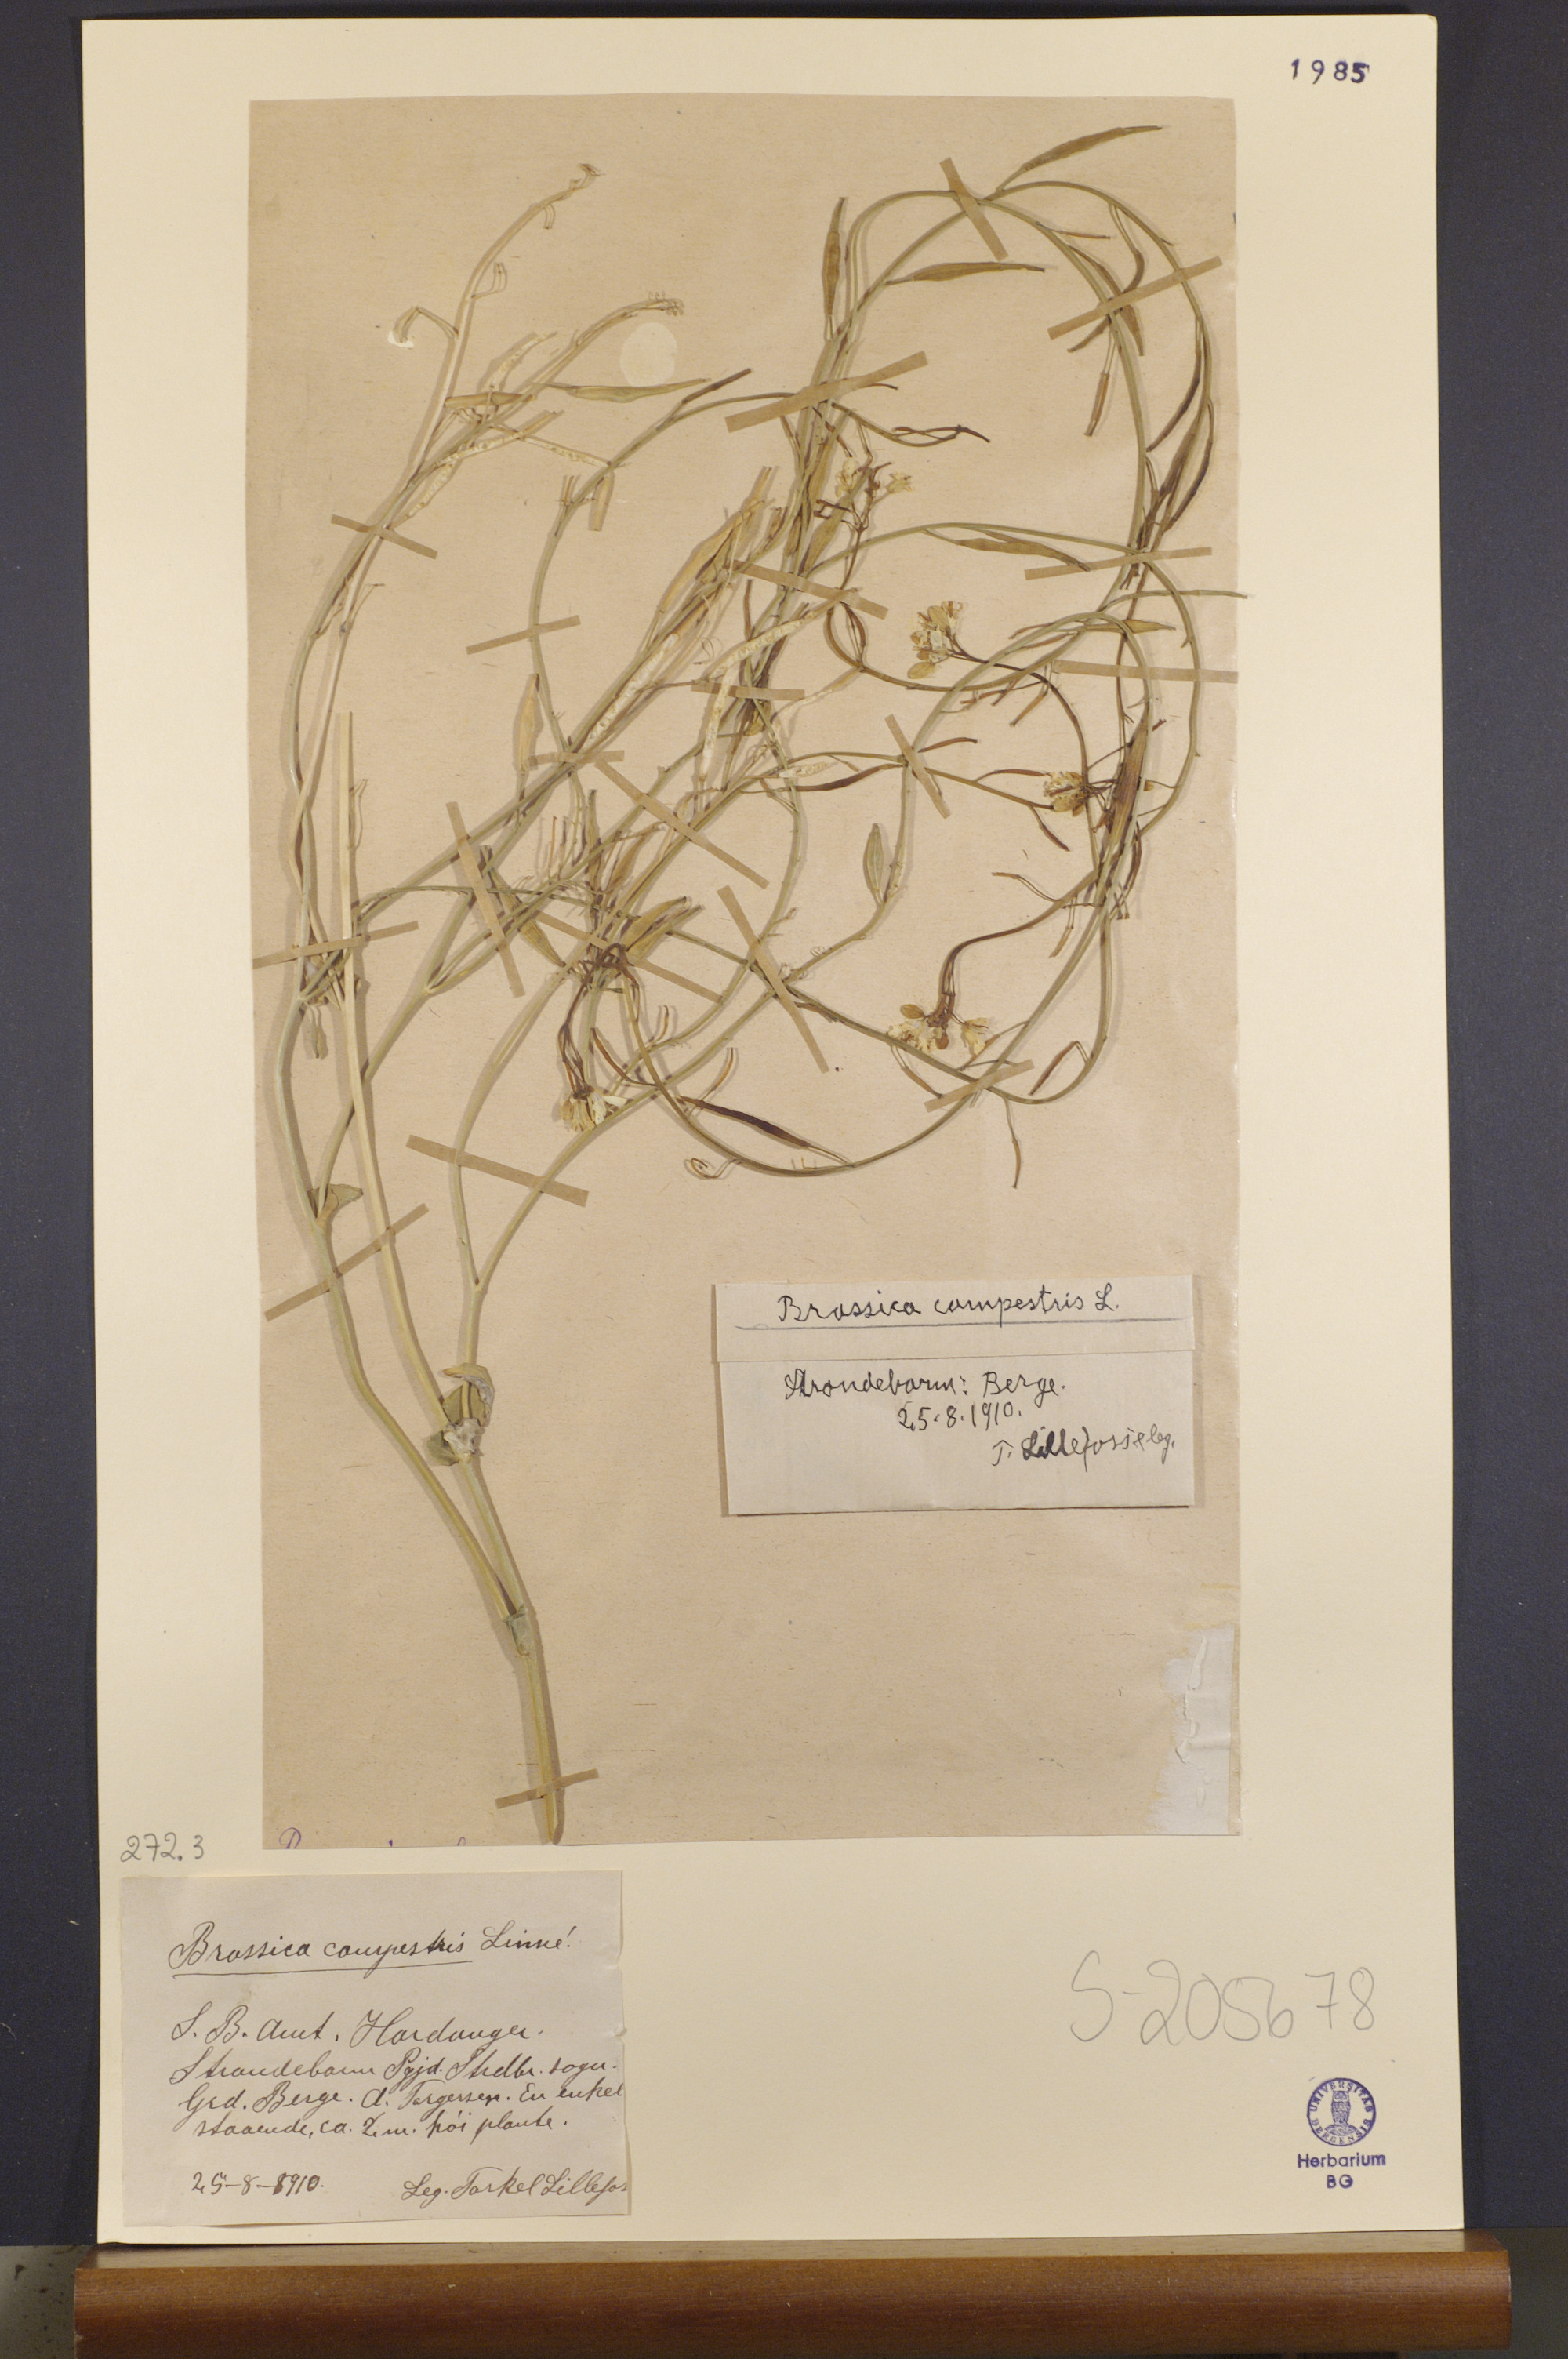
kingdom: Plantae
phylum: Tracheophyta
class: Magnoliopsida
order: Brassicales
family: Brassicaceae
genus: Brassica
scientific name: Brassica rapa
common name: Field mustard
